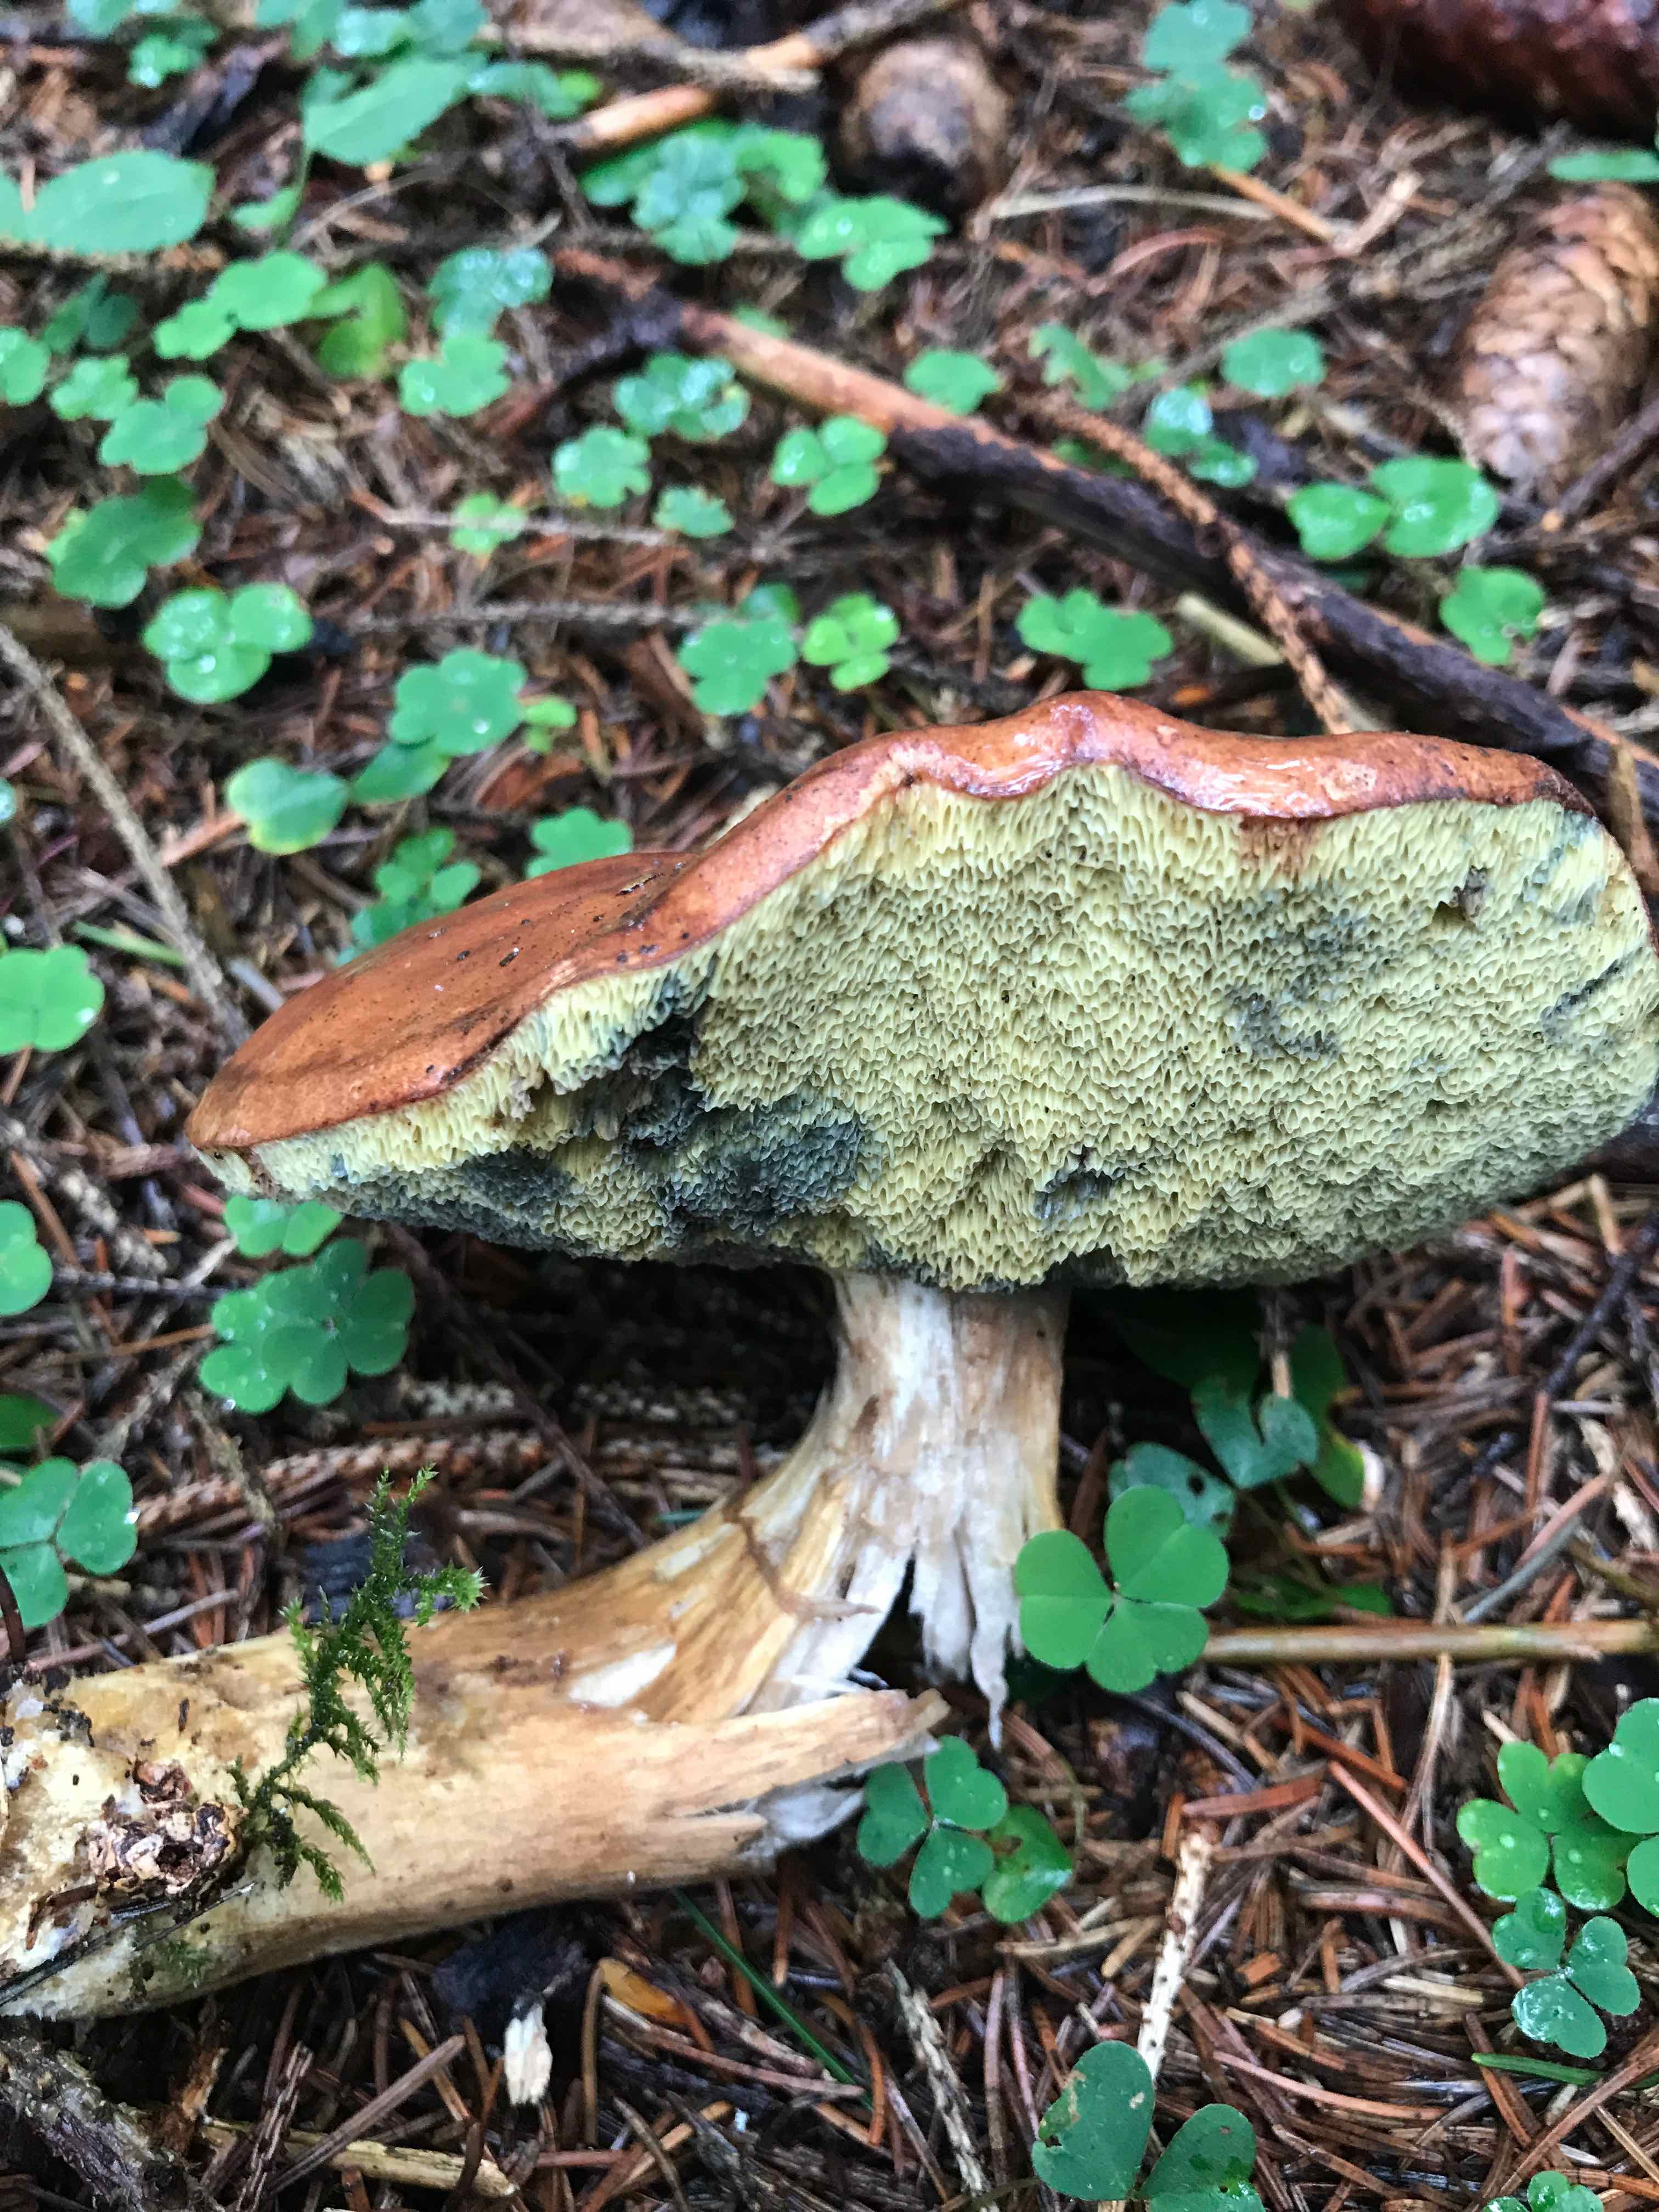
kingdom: Fungi
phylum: Basidiomycota
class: Agaricomycetes
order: Boletales
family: Boletaceae
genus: Imleria
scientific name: Imleria badia
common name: brunstokket rørhat
